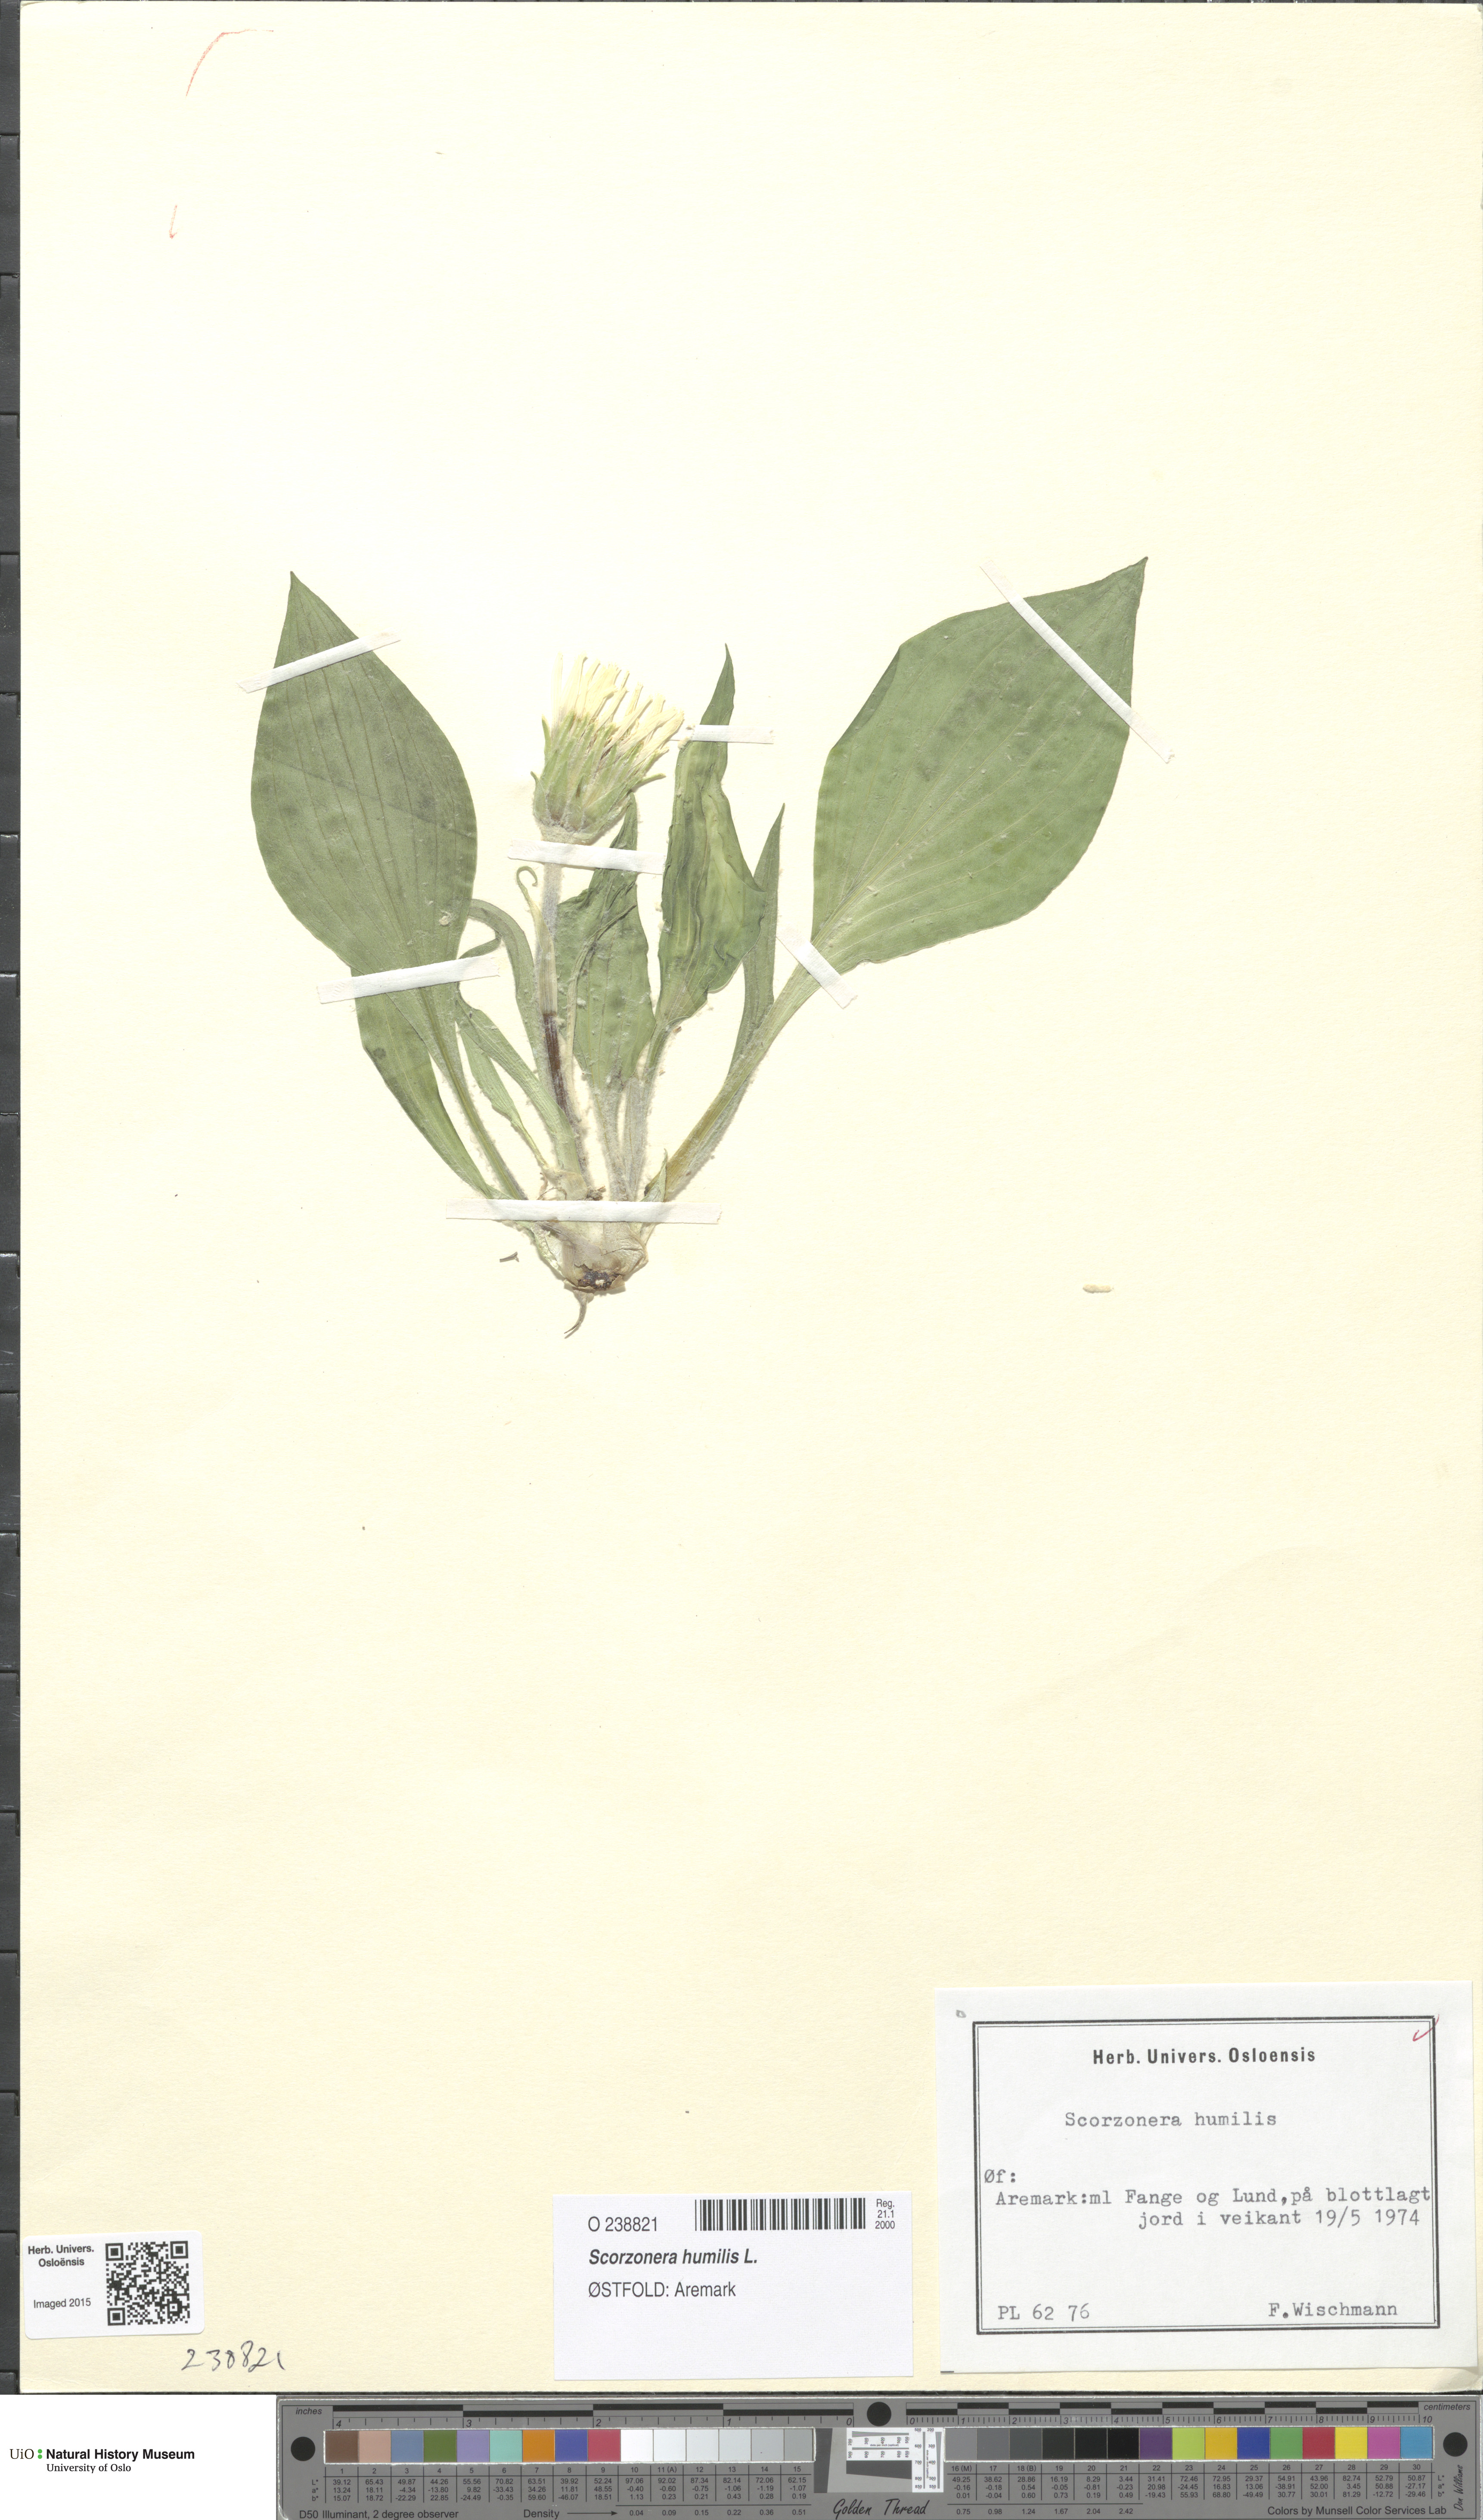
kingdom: Plantae
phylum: Tracheophyta
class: Magnoliopsida
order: Asterales
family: Asteraceae
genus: Scorzonera
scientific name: Scorzonera humilis
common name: Viper's-grass
